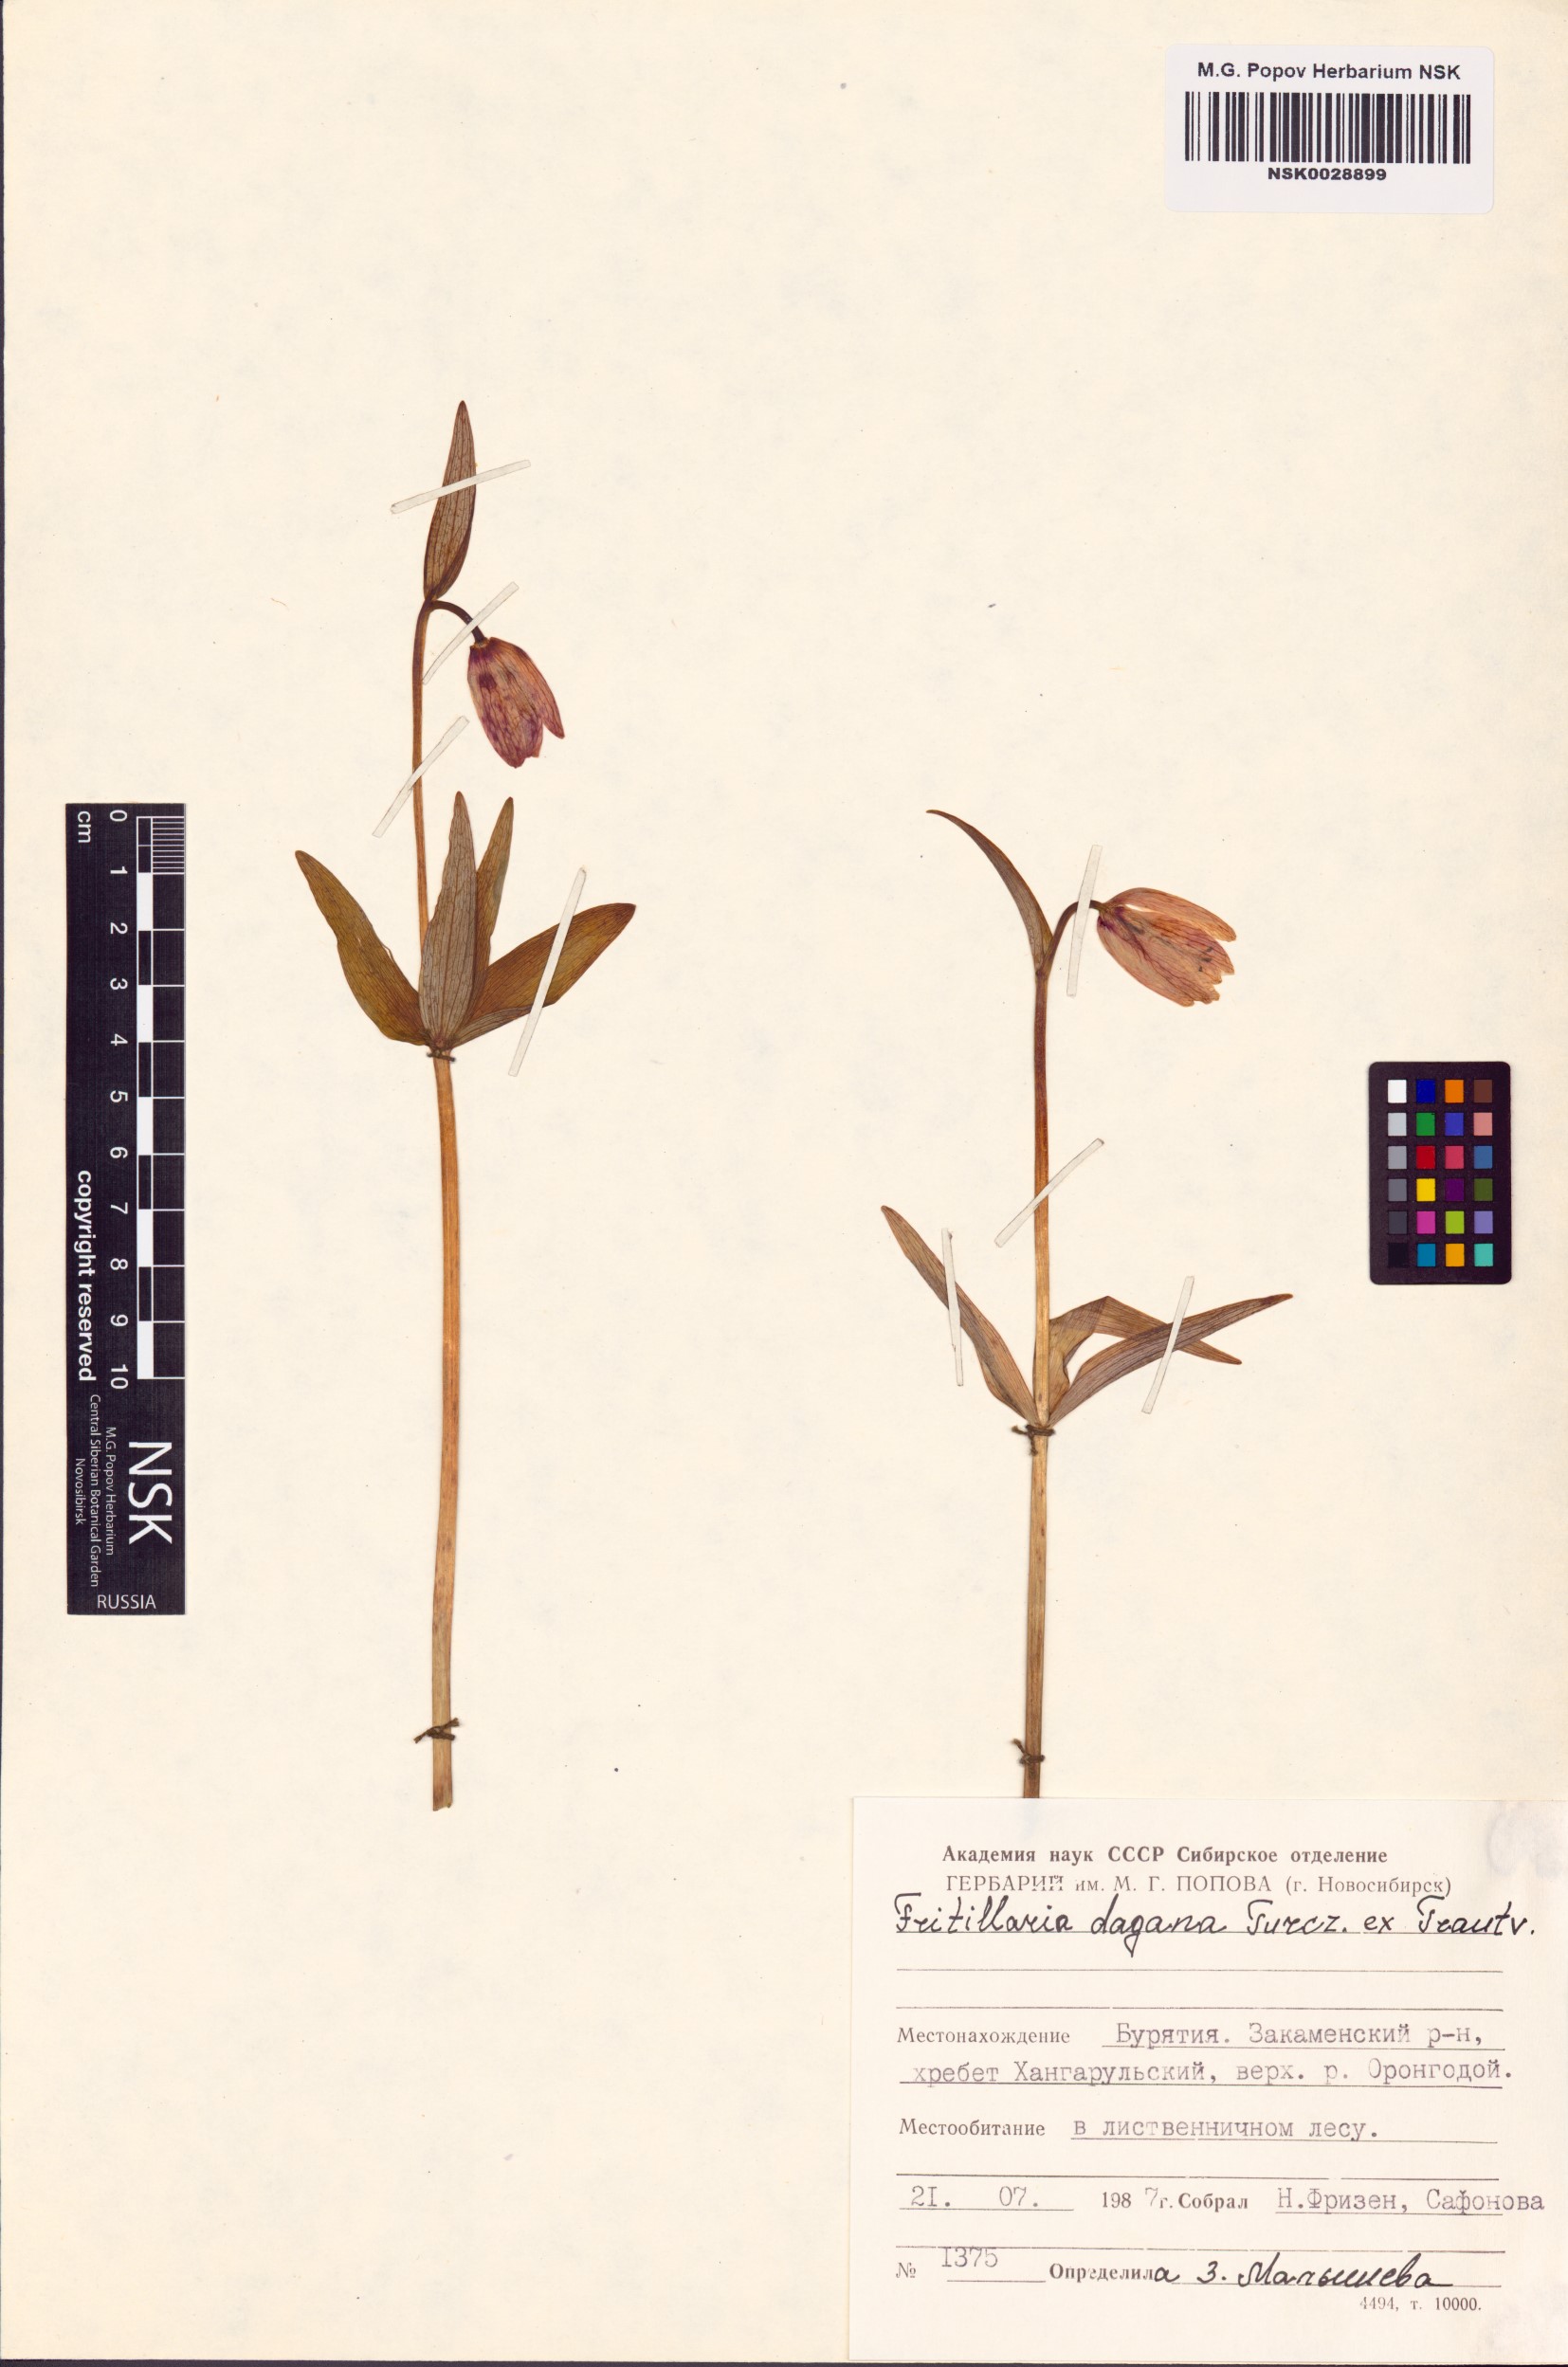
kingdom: Plantae
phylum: Tracheophyta
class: Liliopsida
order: Liliales
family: Liliaceae
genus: Fritillaria
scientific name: Fritillaria dagana
